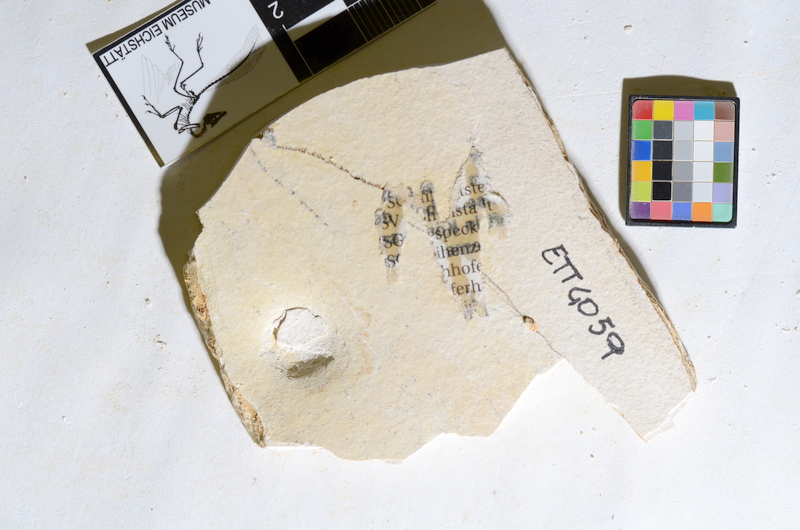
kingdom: Animalia
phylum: Chordata
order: Salmoniformes
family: Orthogonikleithridae
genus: Orthogonikleithrus
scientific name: Orthogonikleithrus hoelli
